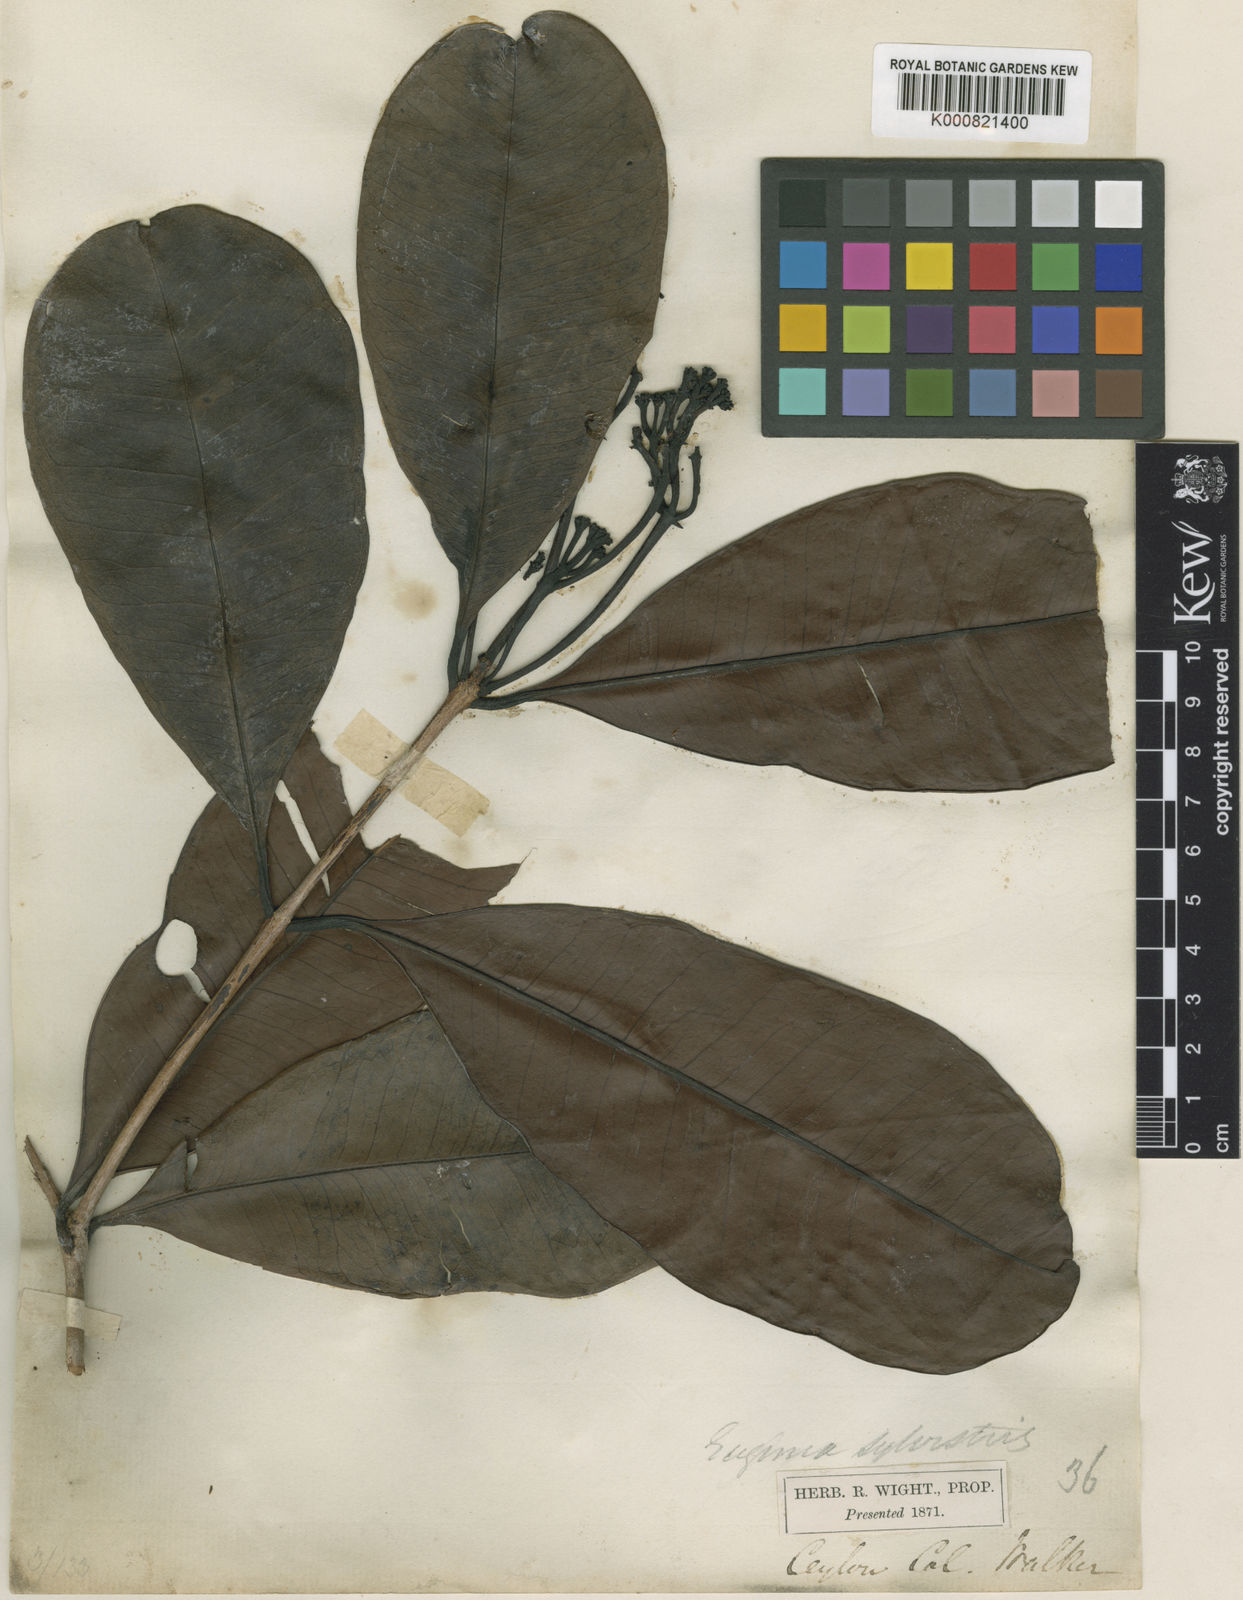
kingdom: Plantae
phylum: Tracheophyta
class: Magnoliopsida
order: Myrtales
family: Myrtaceae
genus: Syzygium
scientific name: Syzygium alubo
